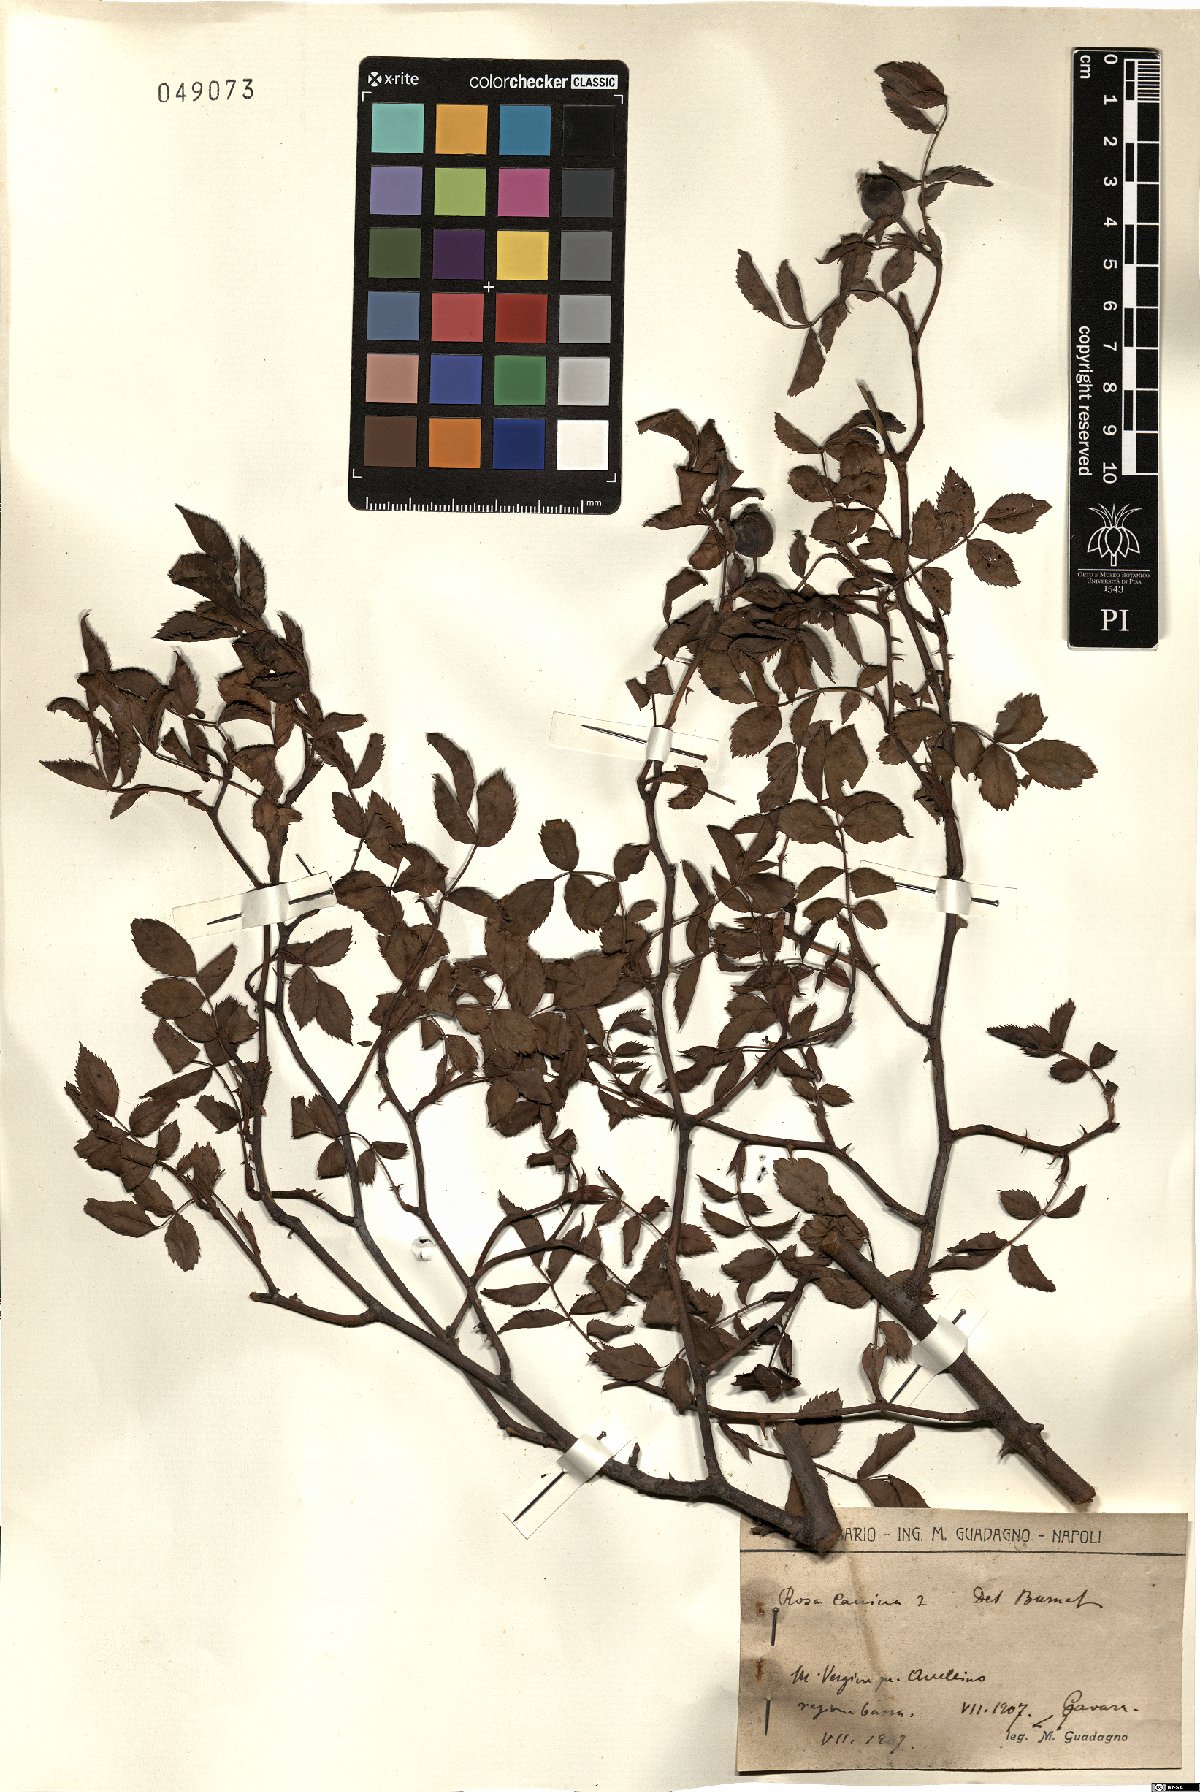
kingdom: Plantae
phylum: Tracheophyta
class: Magnoliopsida
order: Rosales
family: Rosaceae
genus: Rosa
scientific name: Rosa canina
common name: Dog rose
